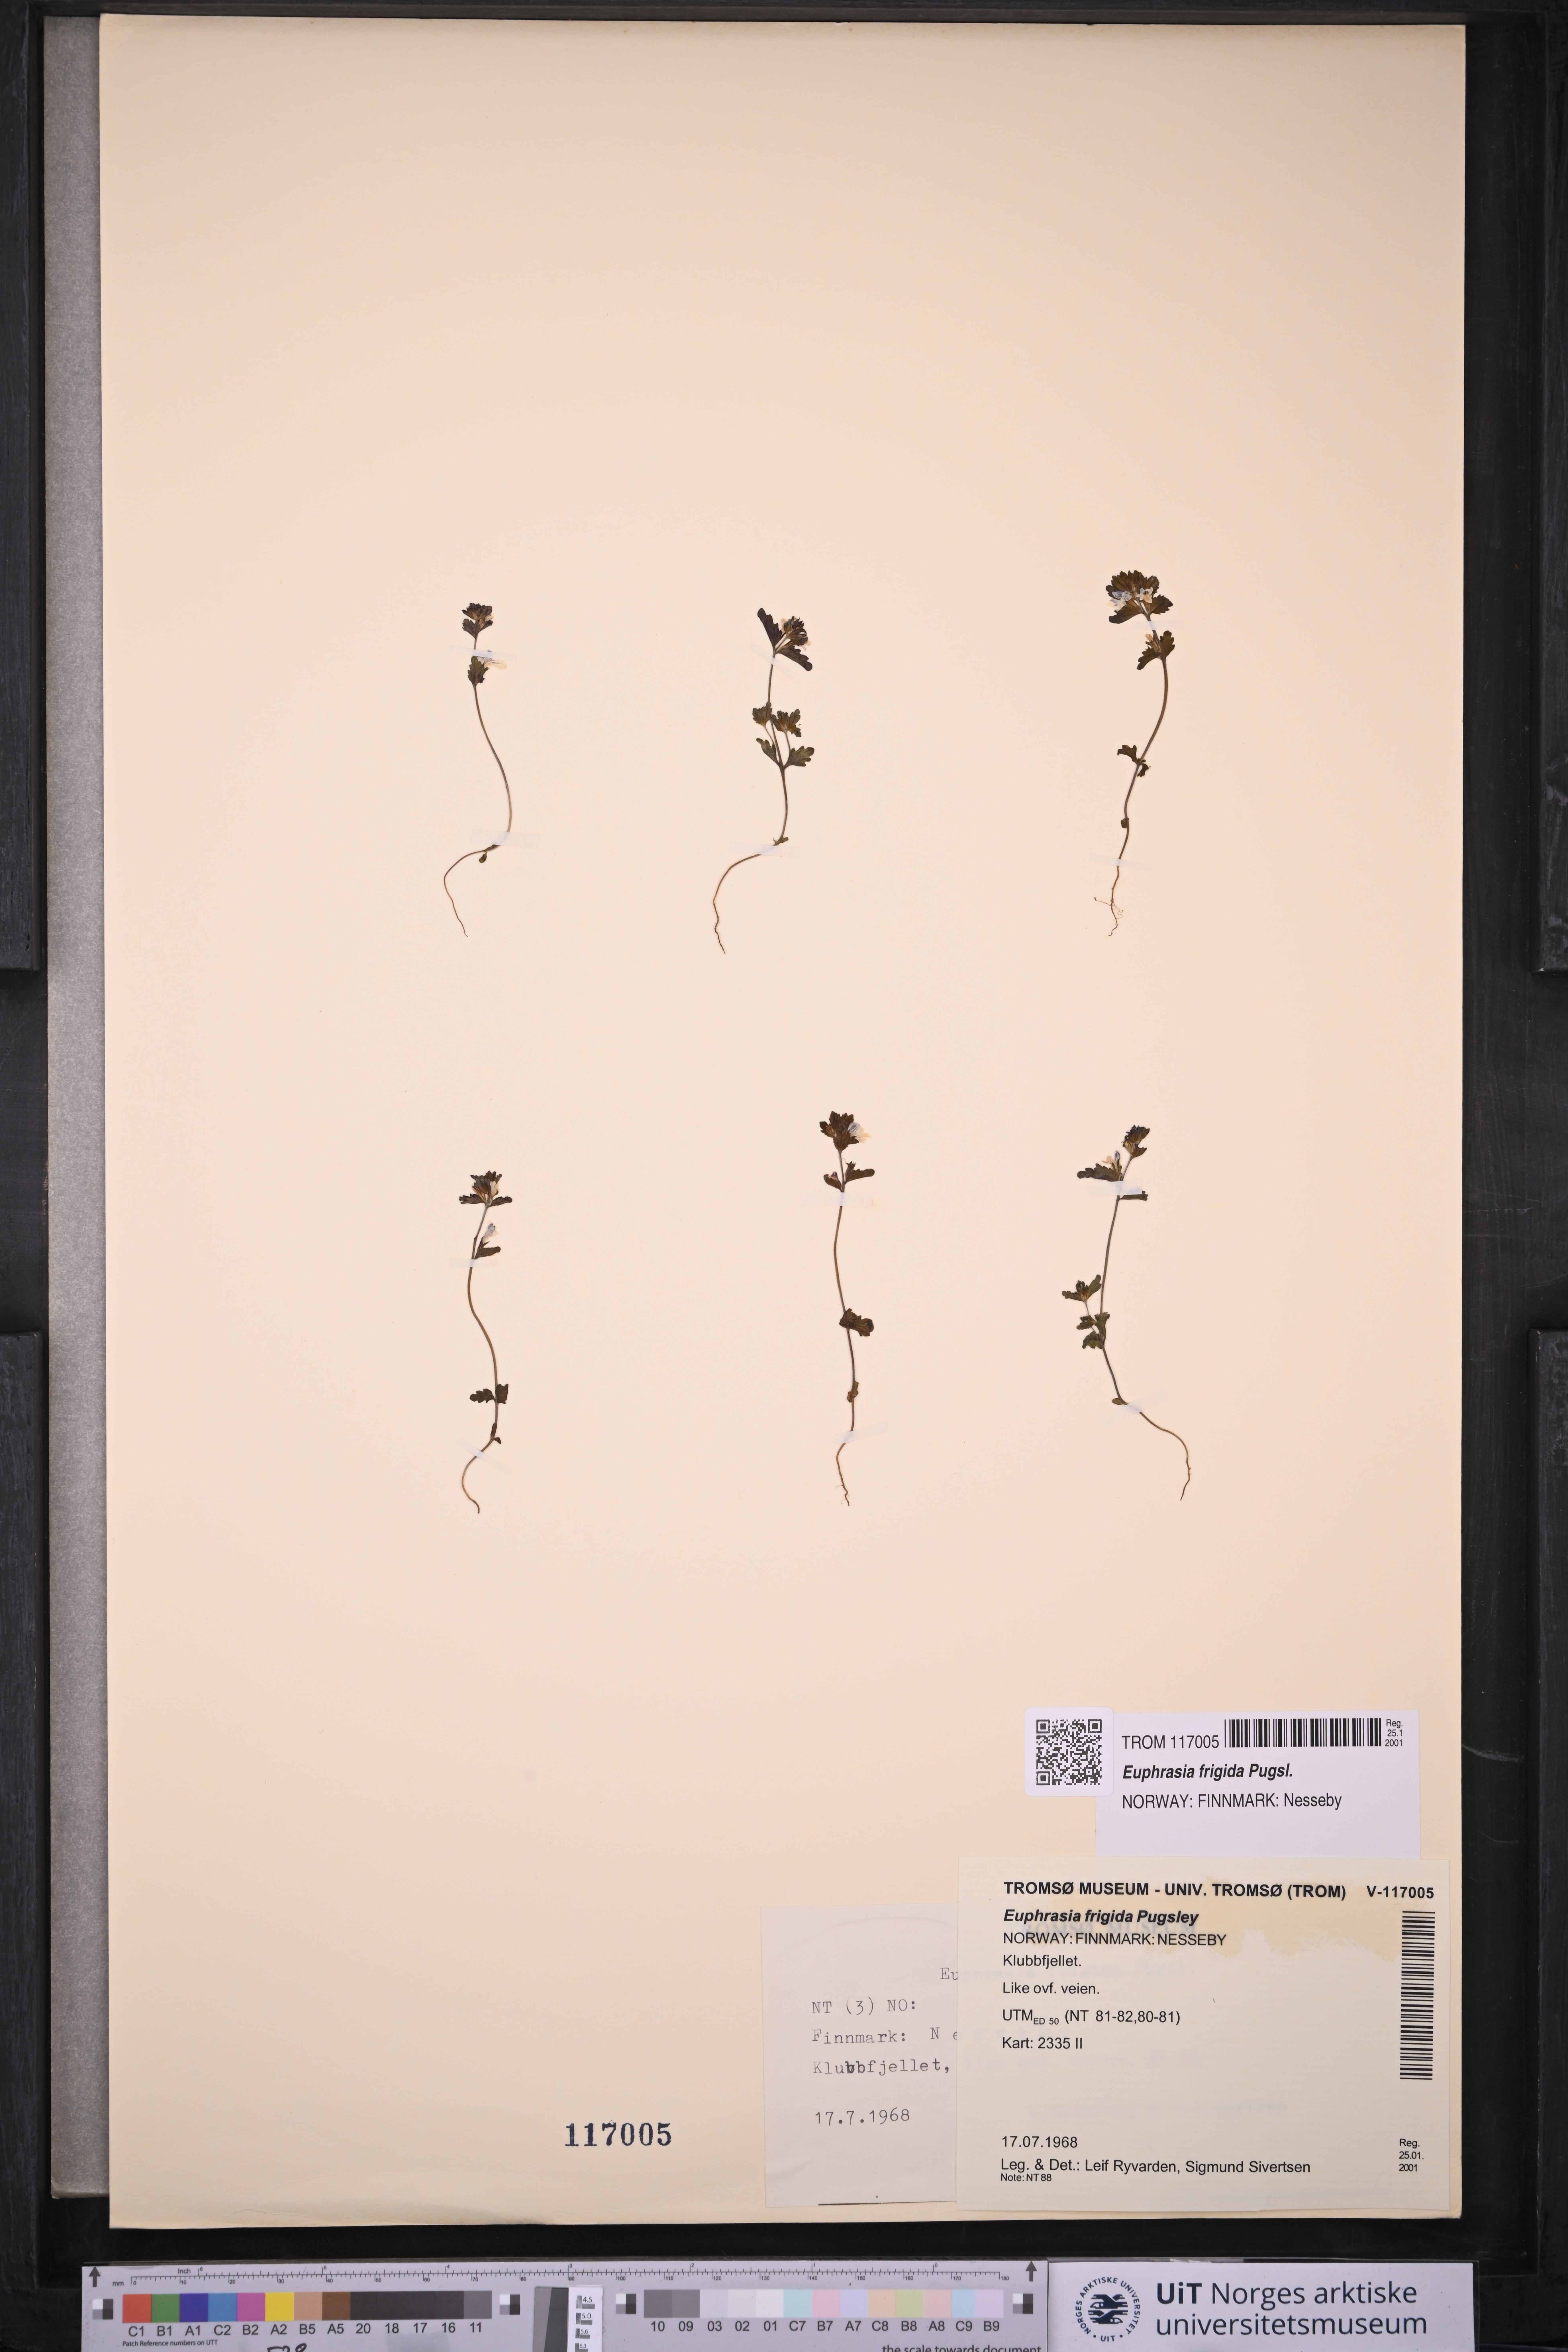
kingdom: Plantae
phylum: Tracheophyta
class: Magnoliopsida
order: Lamiales
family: Orobanchaceae
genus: Euphrasia
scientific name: Euphrasia frigida
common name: An eyebright
